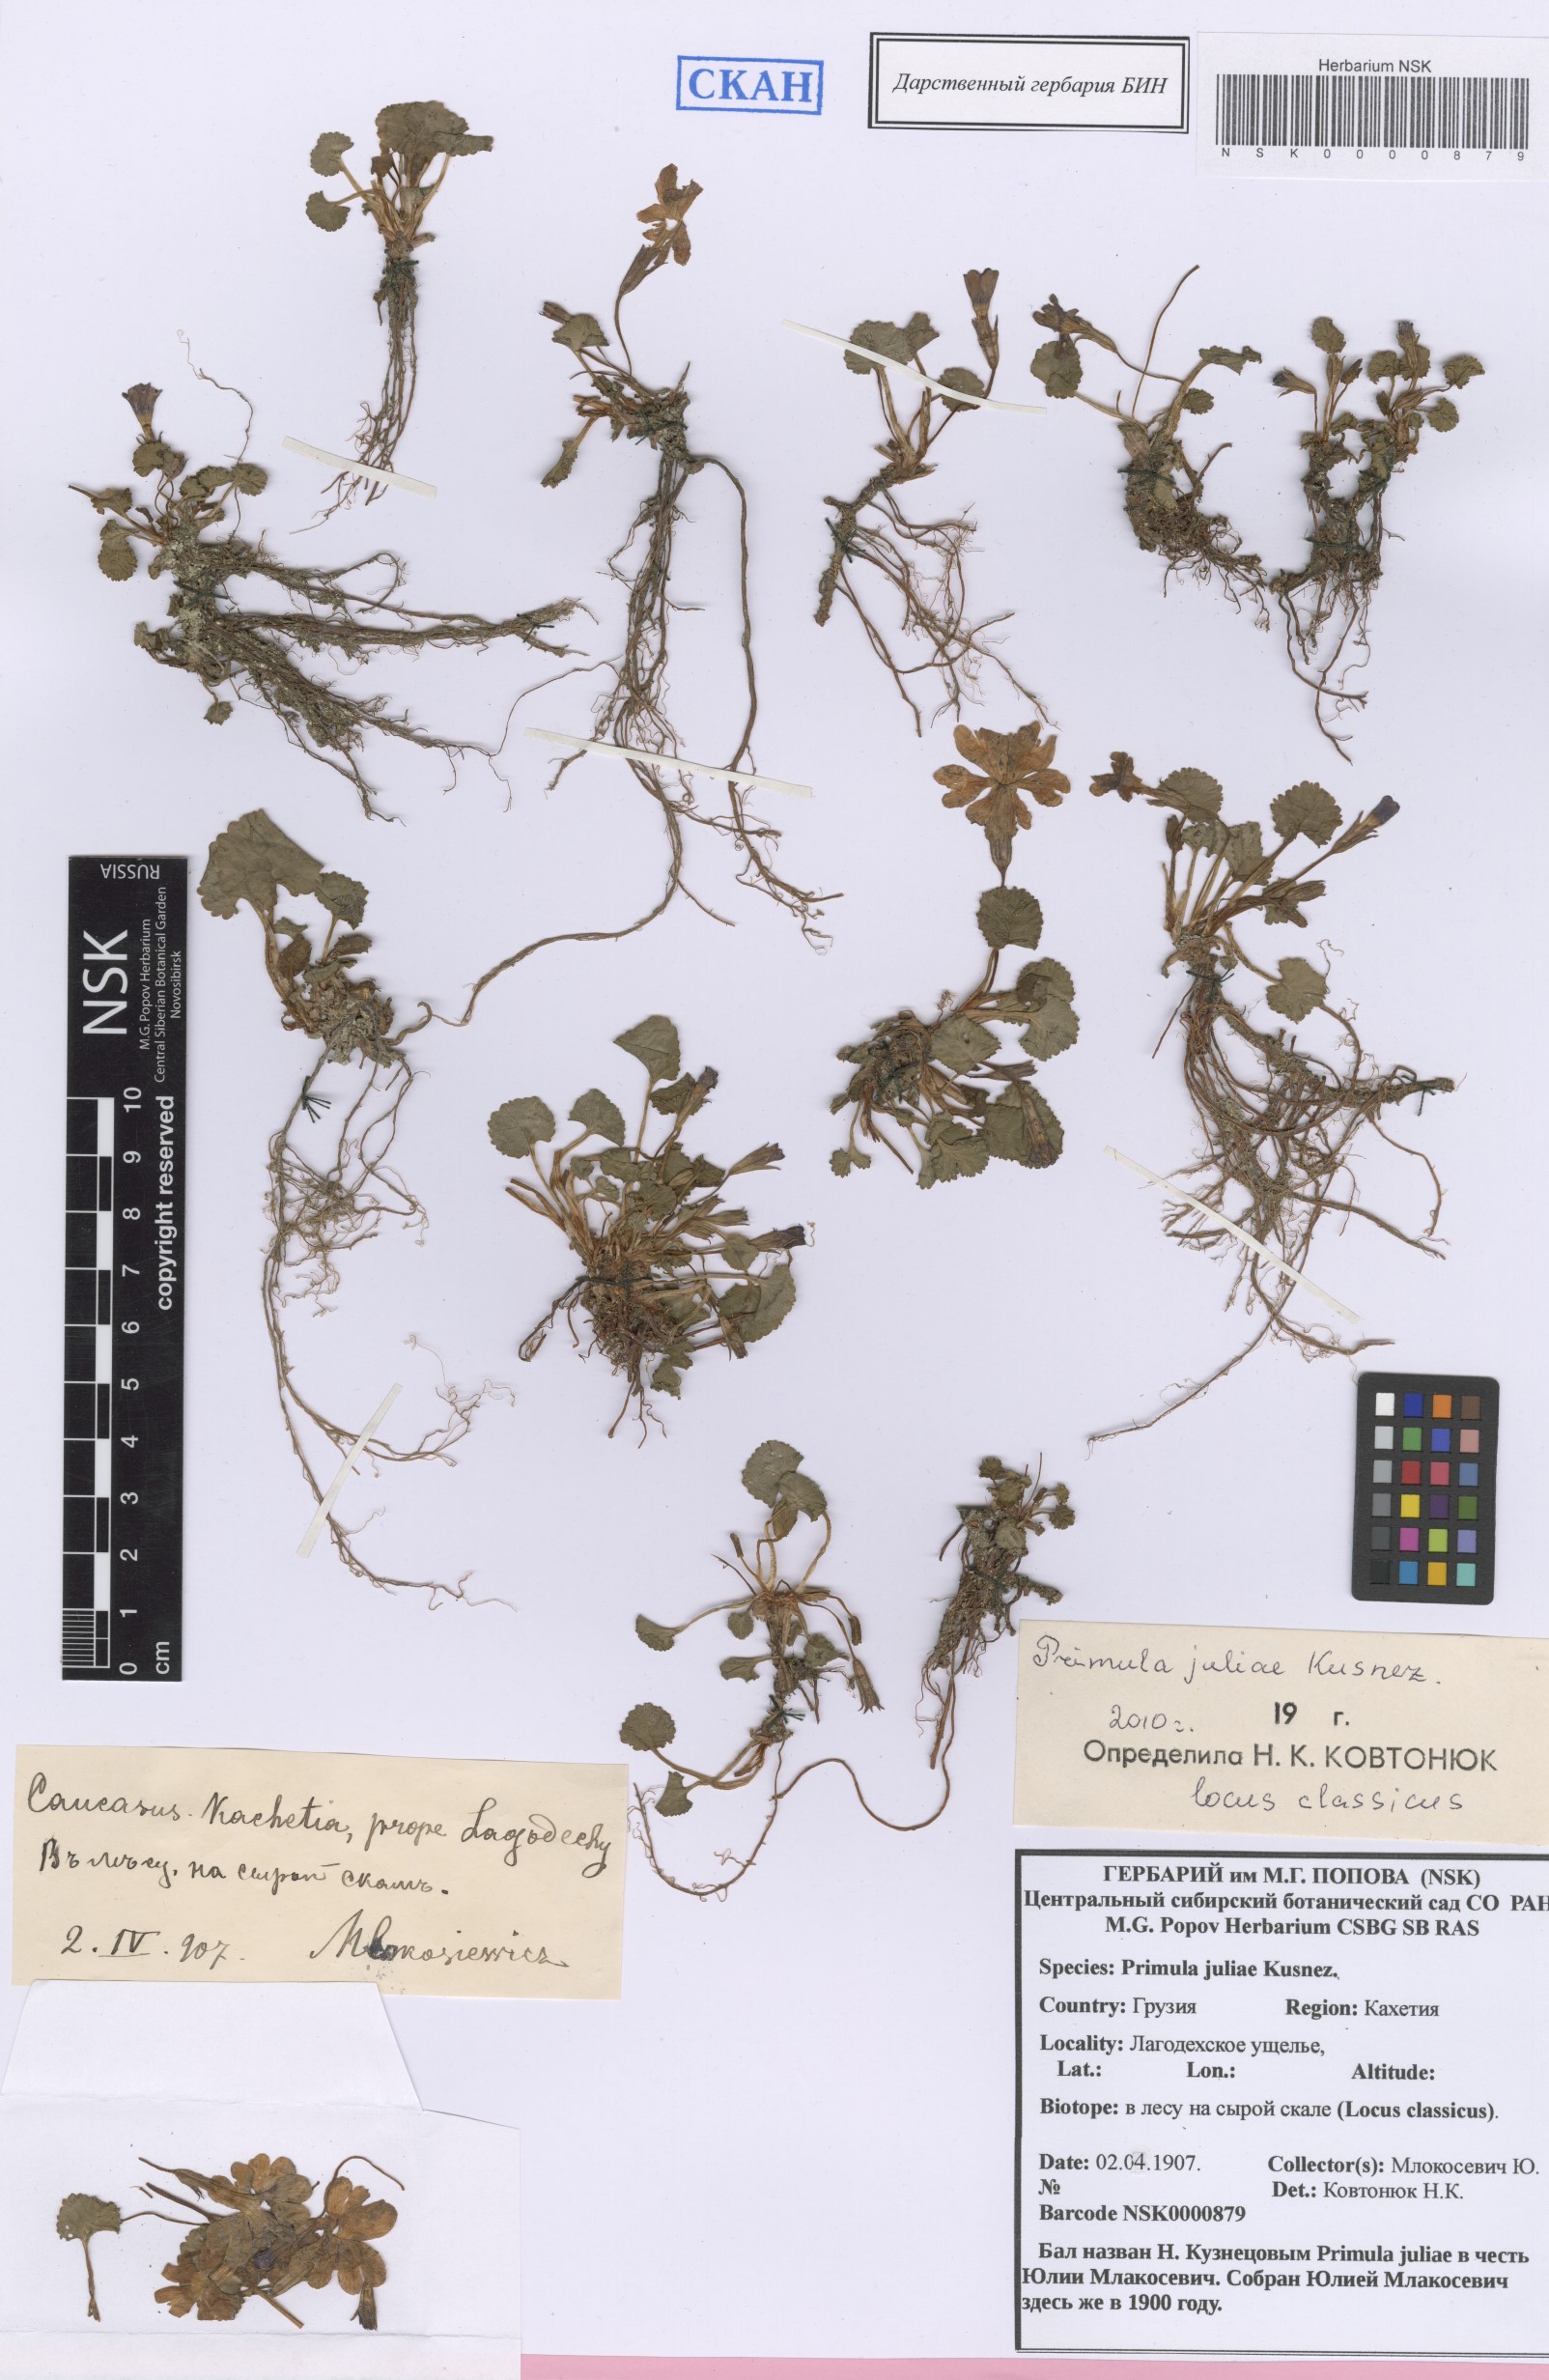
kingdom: Plantae
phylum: Tracheophyta
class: Magnoliopsida
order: Ericales
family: Primulaceae
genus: Primula
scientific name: Primula juliae
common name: Julia's primrose
